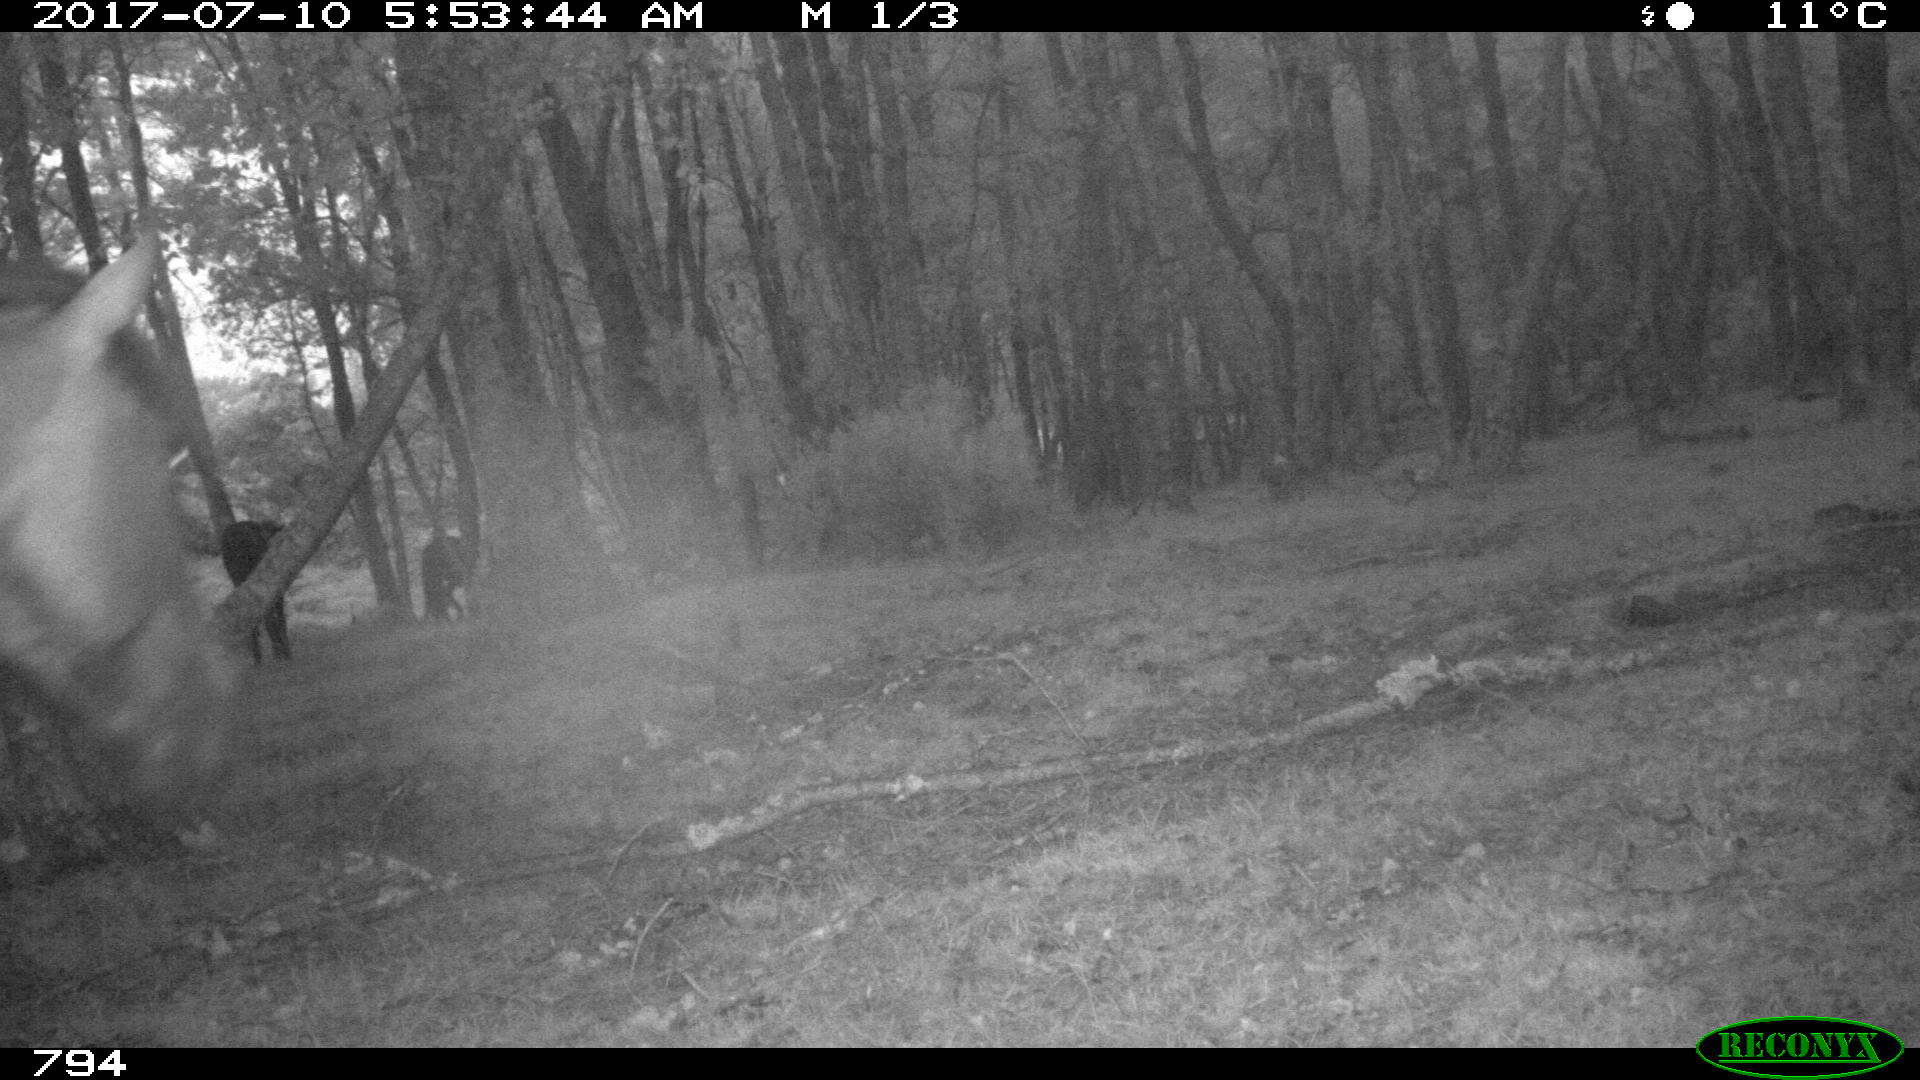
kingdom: Animalia
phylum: Chordata
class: Mammalia
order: Perissodactyla
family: Equidae
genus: Equus
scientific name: Equus caballus
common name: Horse
